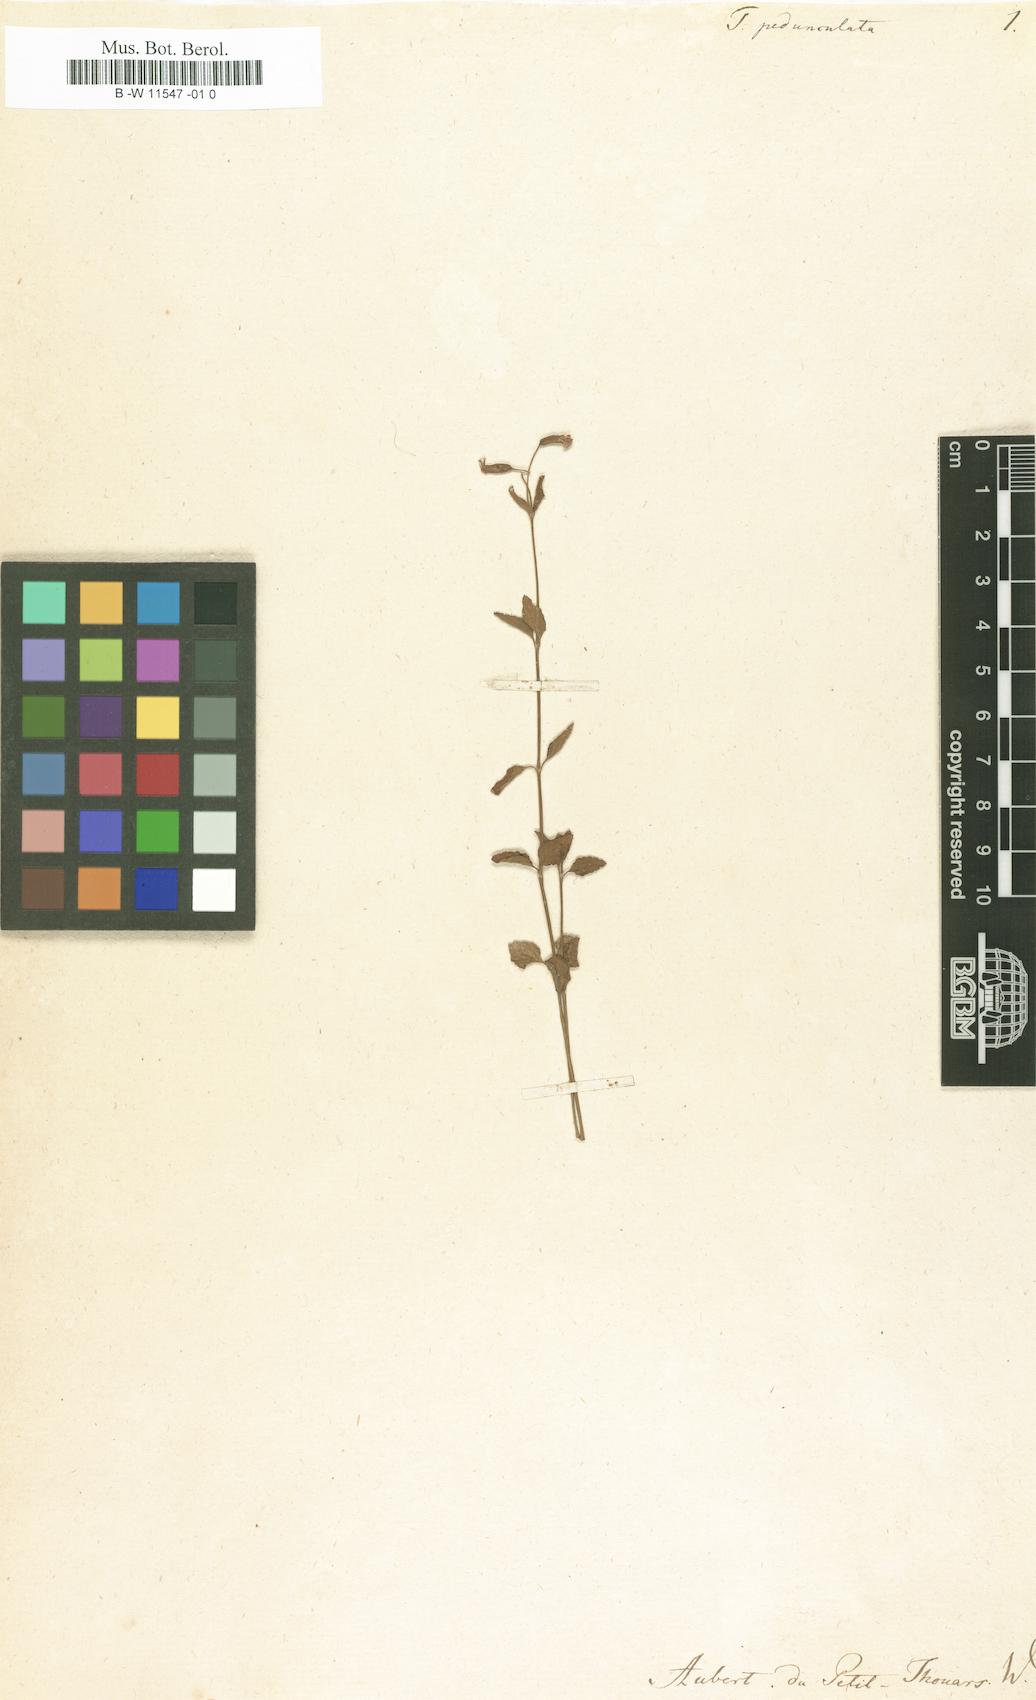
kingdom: Plantae
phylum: Tracheophyta
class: Magnoliopsida
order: Lamiales
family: Linderniaceae
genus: Torenia
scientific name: Torenia thouarsii
